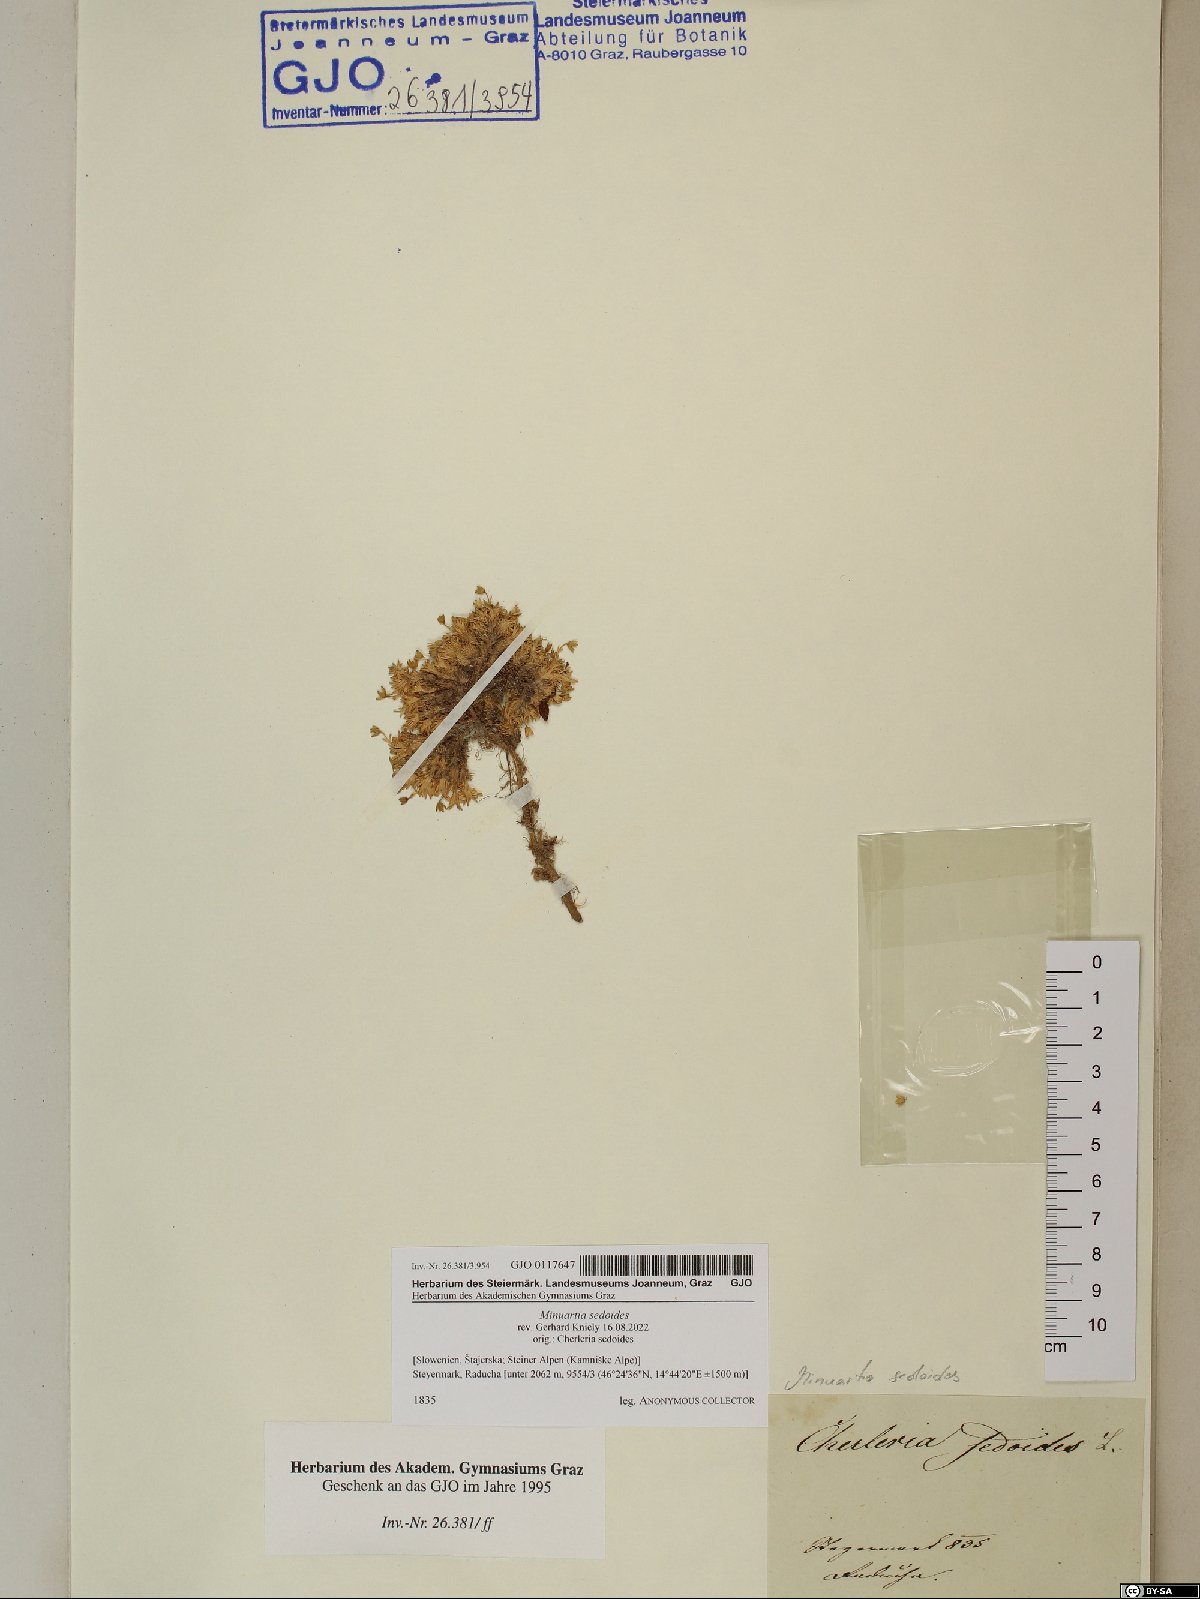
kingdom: Plantae
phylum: Tracheophyta
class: Magnoliopsida
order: Caryophyllales
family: Caryophyllaceae
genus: Cherleria
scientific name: Cherleria sedoides
